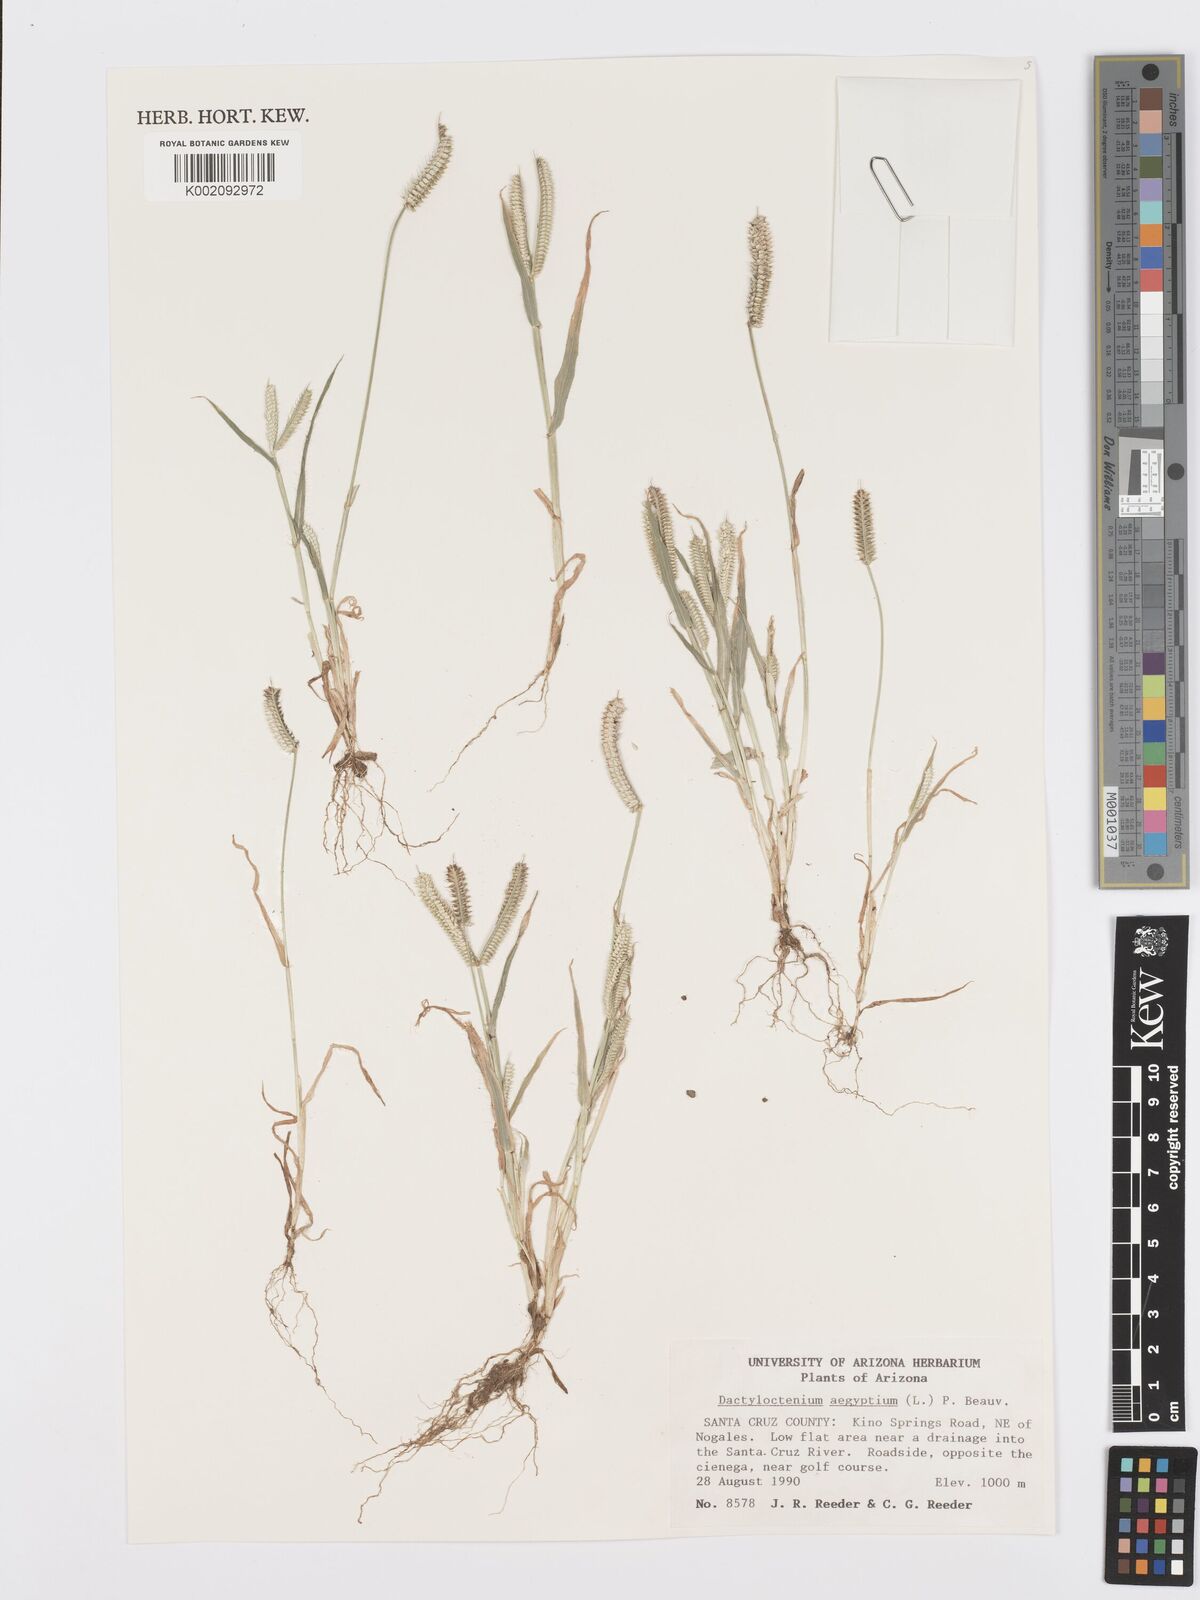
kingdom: Plantae
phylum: Tracheophyta
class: Liliopsida
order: Poales
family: Poaceae
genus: Dactyloctenium
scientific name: Dactyloctenium aegyptium
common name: Egyptian grass
